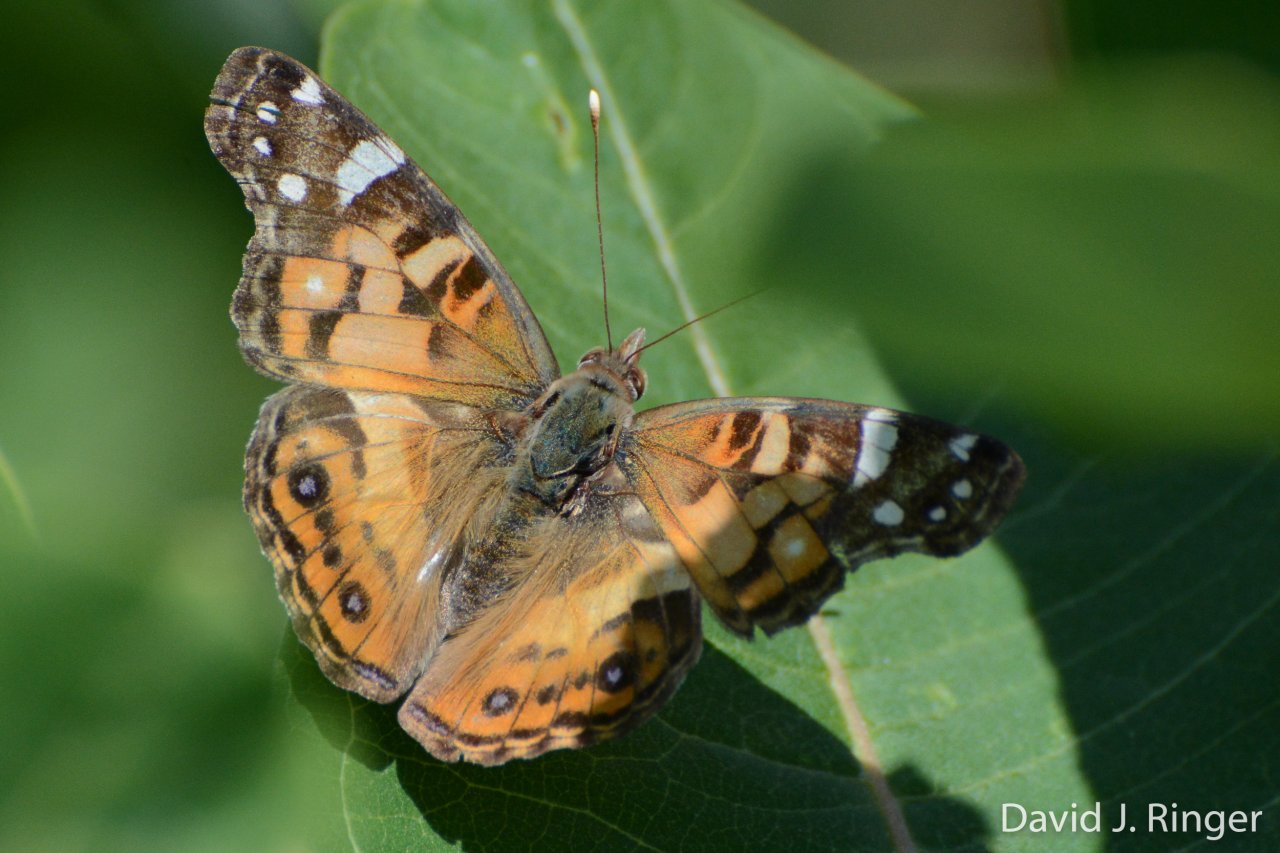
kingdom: Animalia
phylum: Arthropoda
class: Insecta
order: Lepidoptera
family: Nymphalidae
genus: Vanessa
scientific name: Vanessa virginiensis
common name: American Lady
